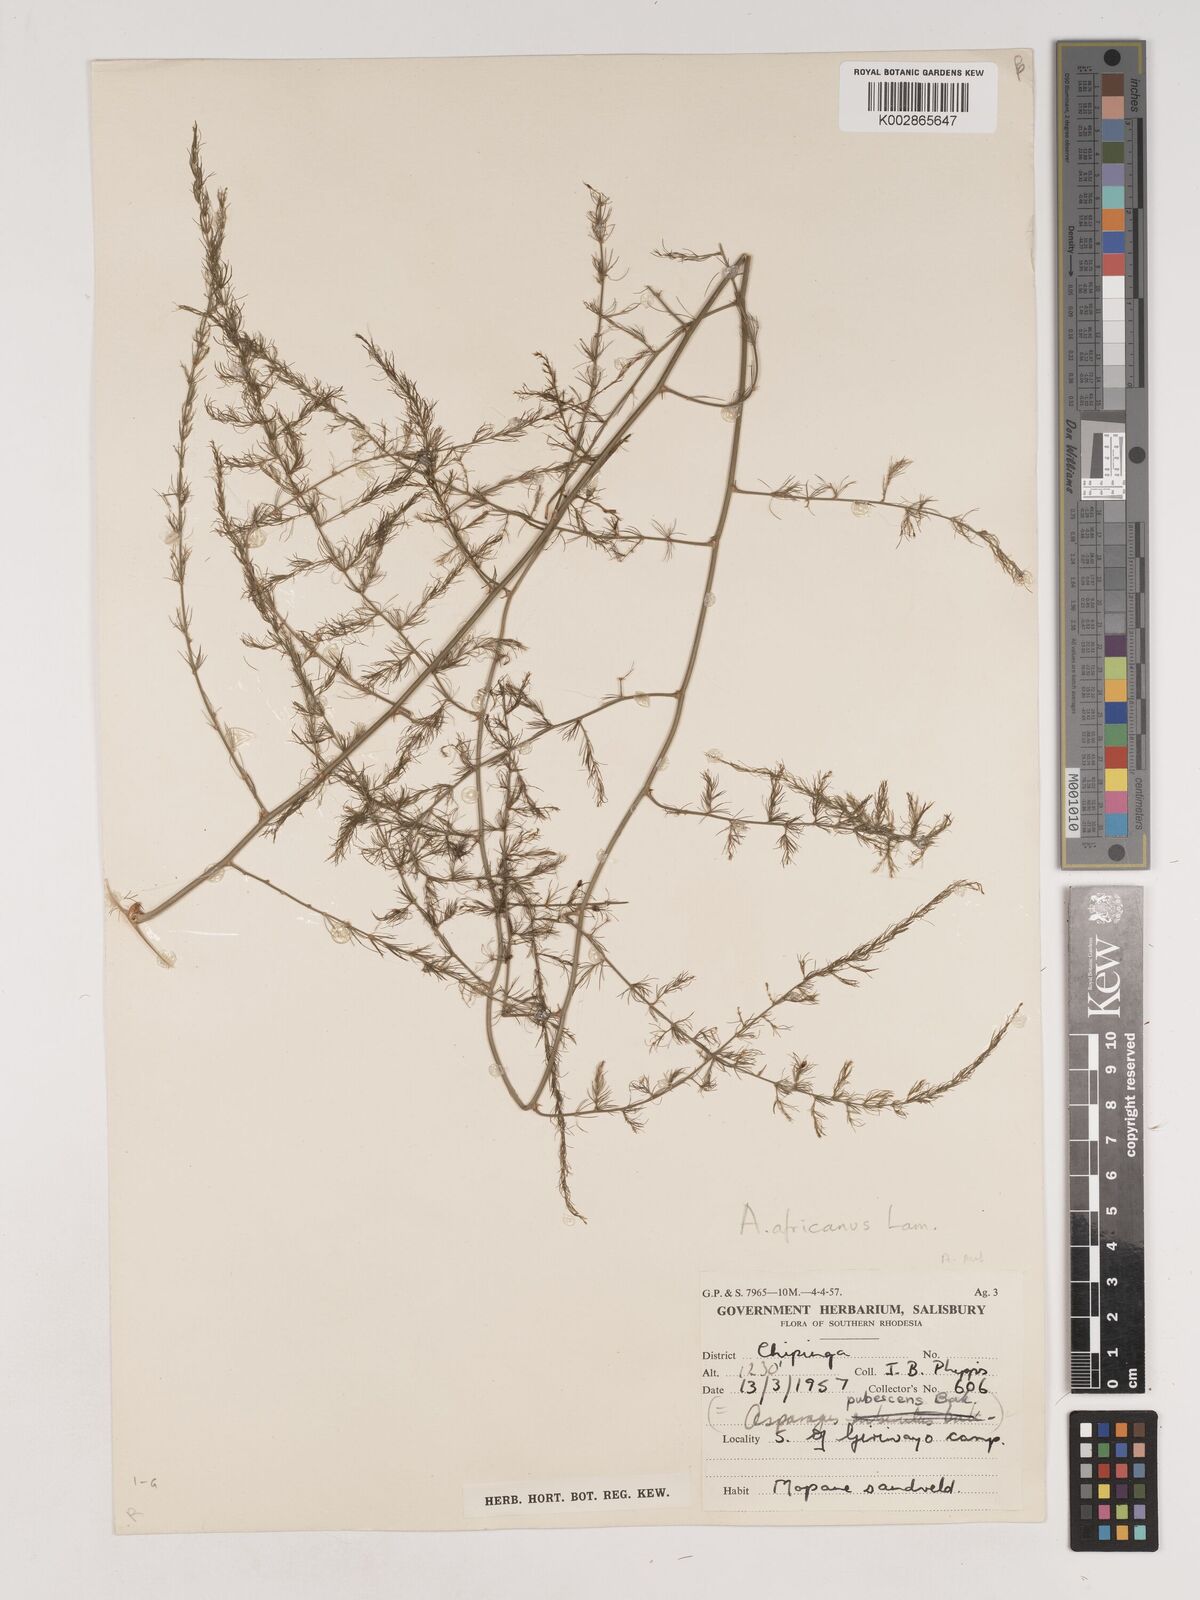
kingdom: Plantae
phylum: Tracheophyta
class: Liliopsida
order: Asparagales
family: Asparagaceae
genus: Asparagus
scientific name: Asparagus africanus
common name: Asparagus-fern
